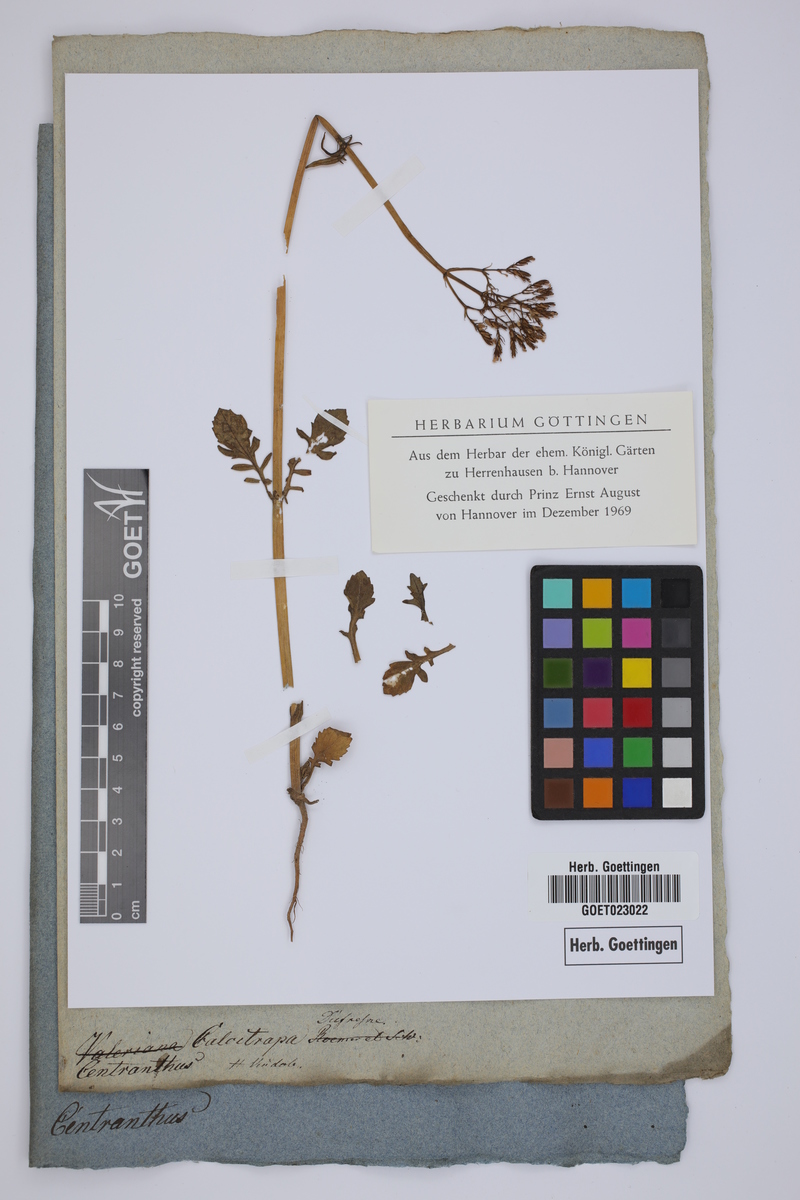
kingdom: Plantae
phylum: Tracheophyta
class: Magnoliopsida
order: Dipsacales
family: Caprifoliaceae
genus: Centranthus
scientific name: Centranthus calcitrapae
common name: Annual valerian
